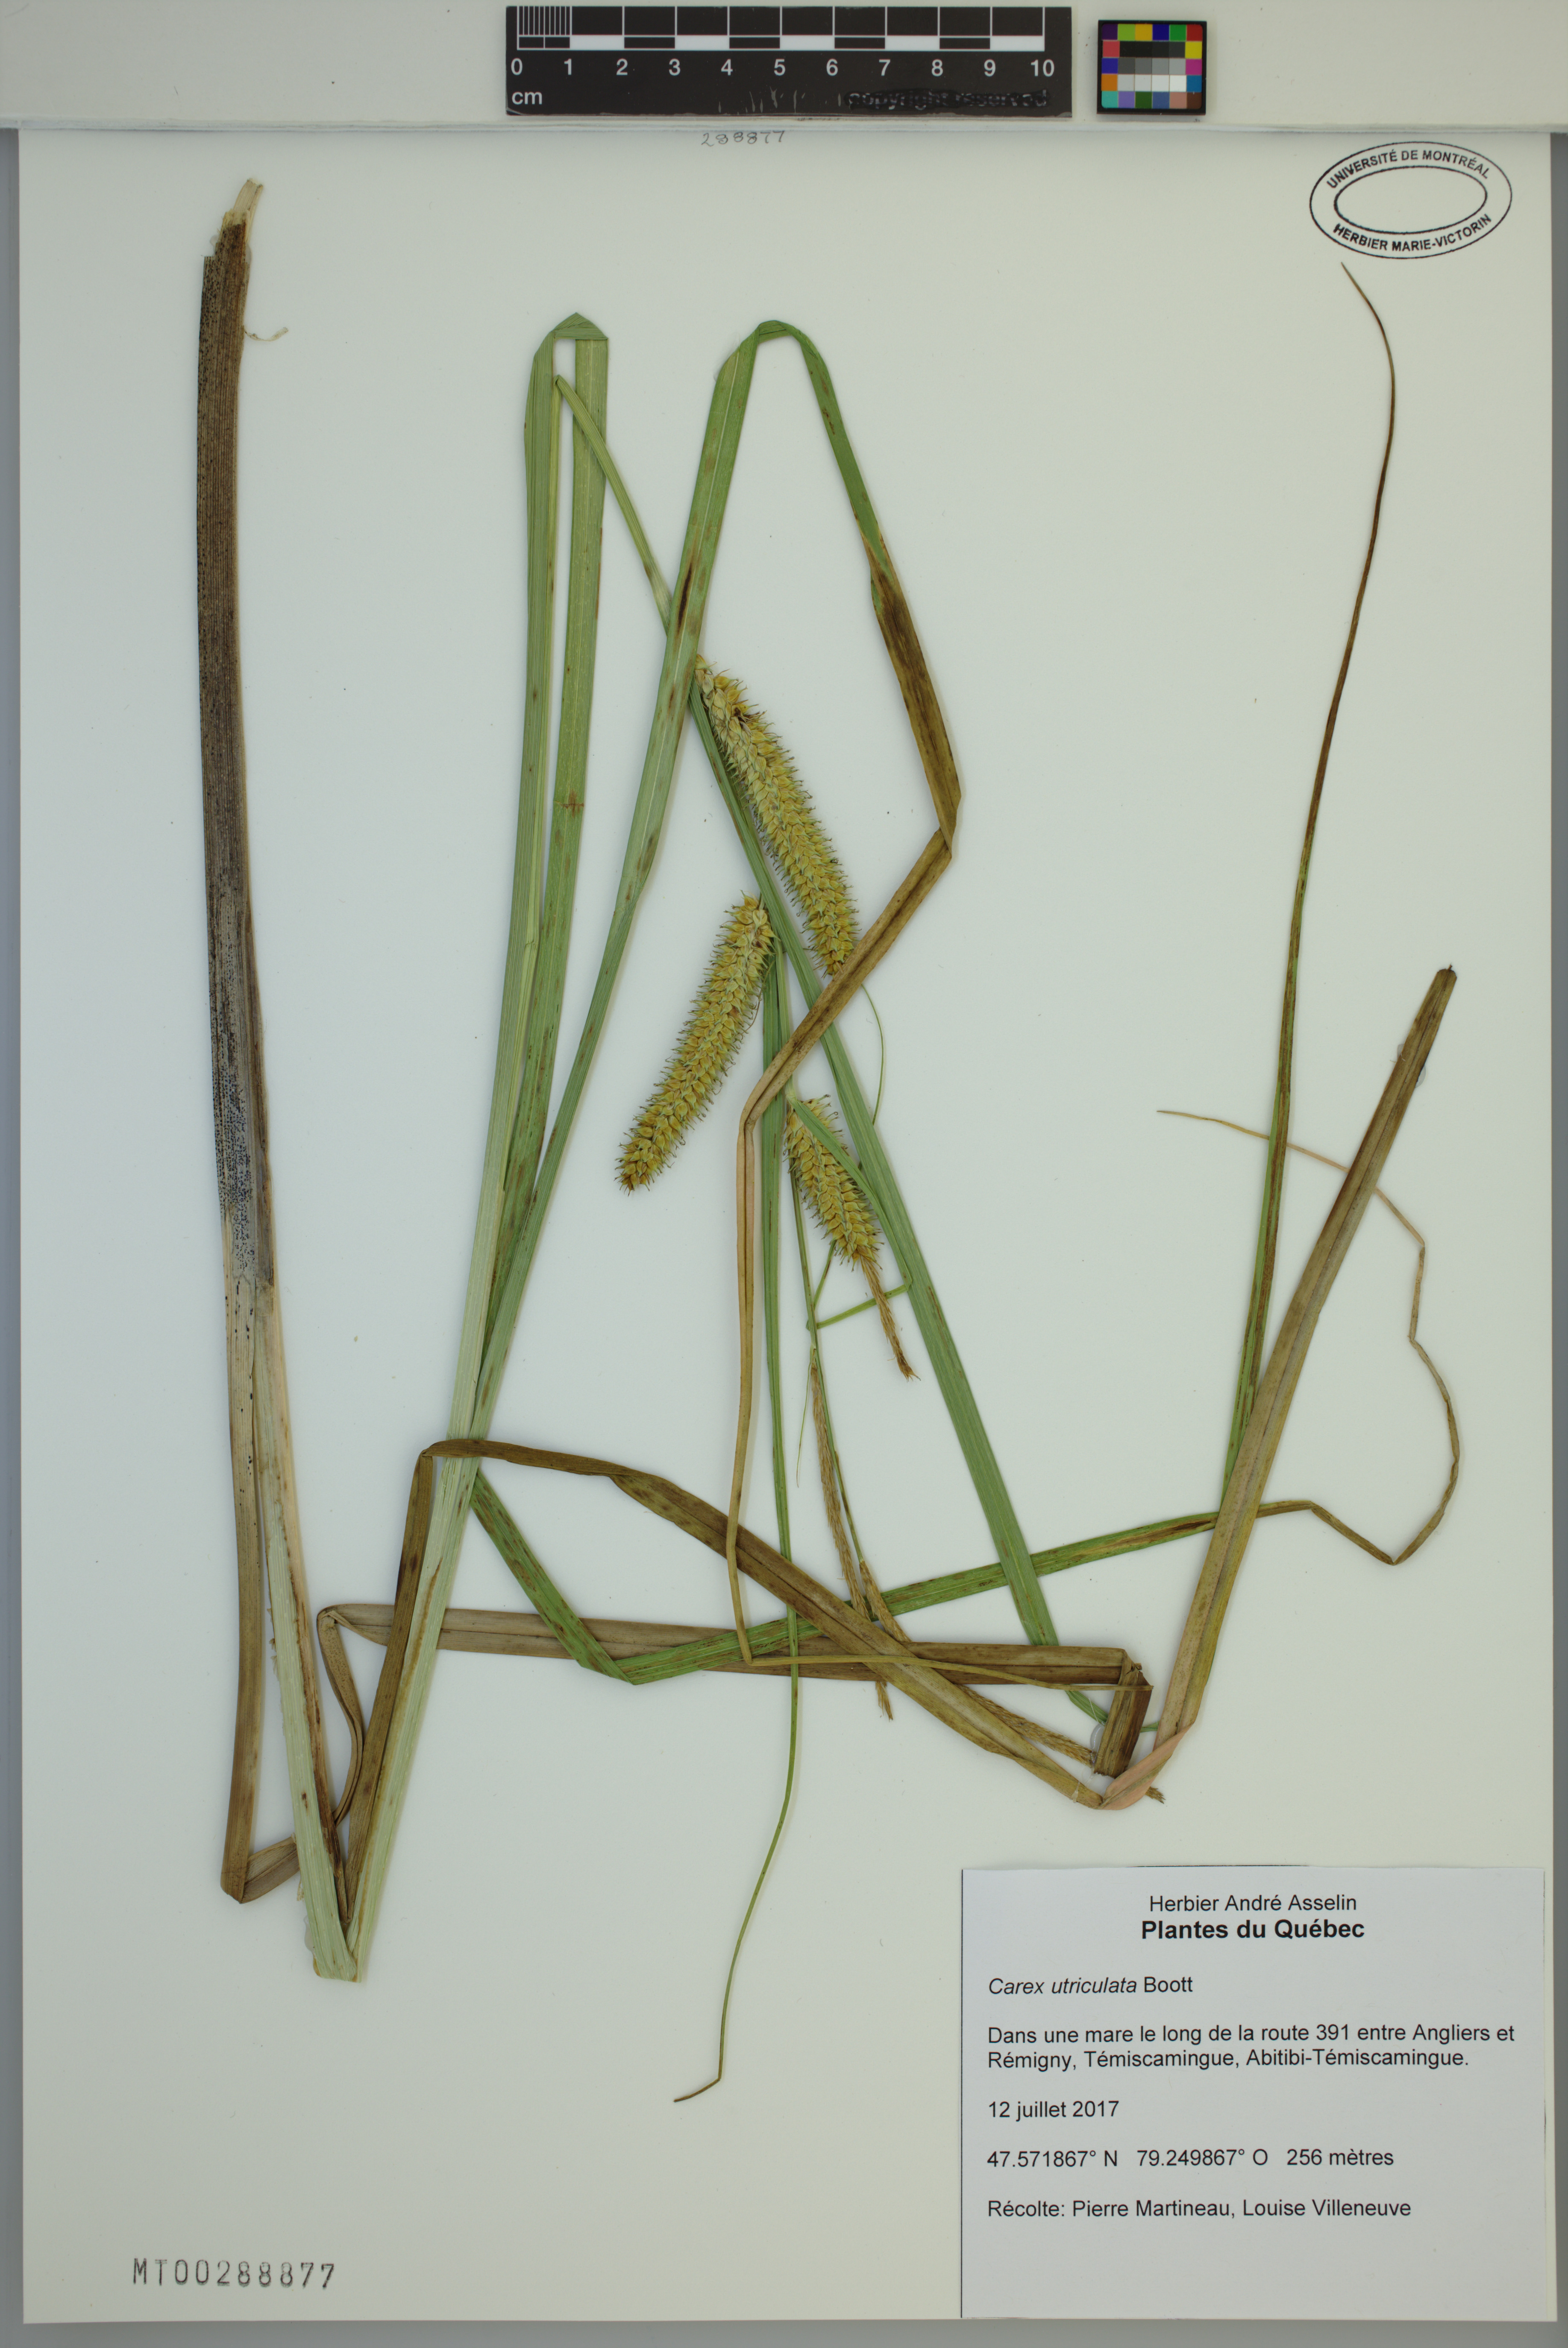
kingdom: Plantae
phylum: Tracheophyta
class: Liliopsida
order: Poales
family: Cyperaceae
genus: Carex
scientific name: Carex utriculata
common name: Beaked sedge
